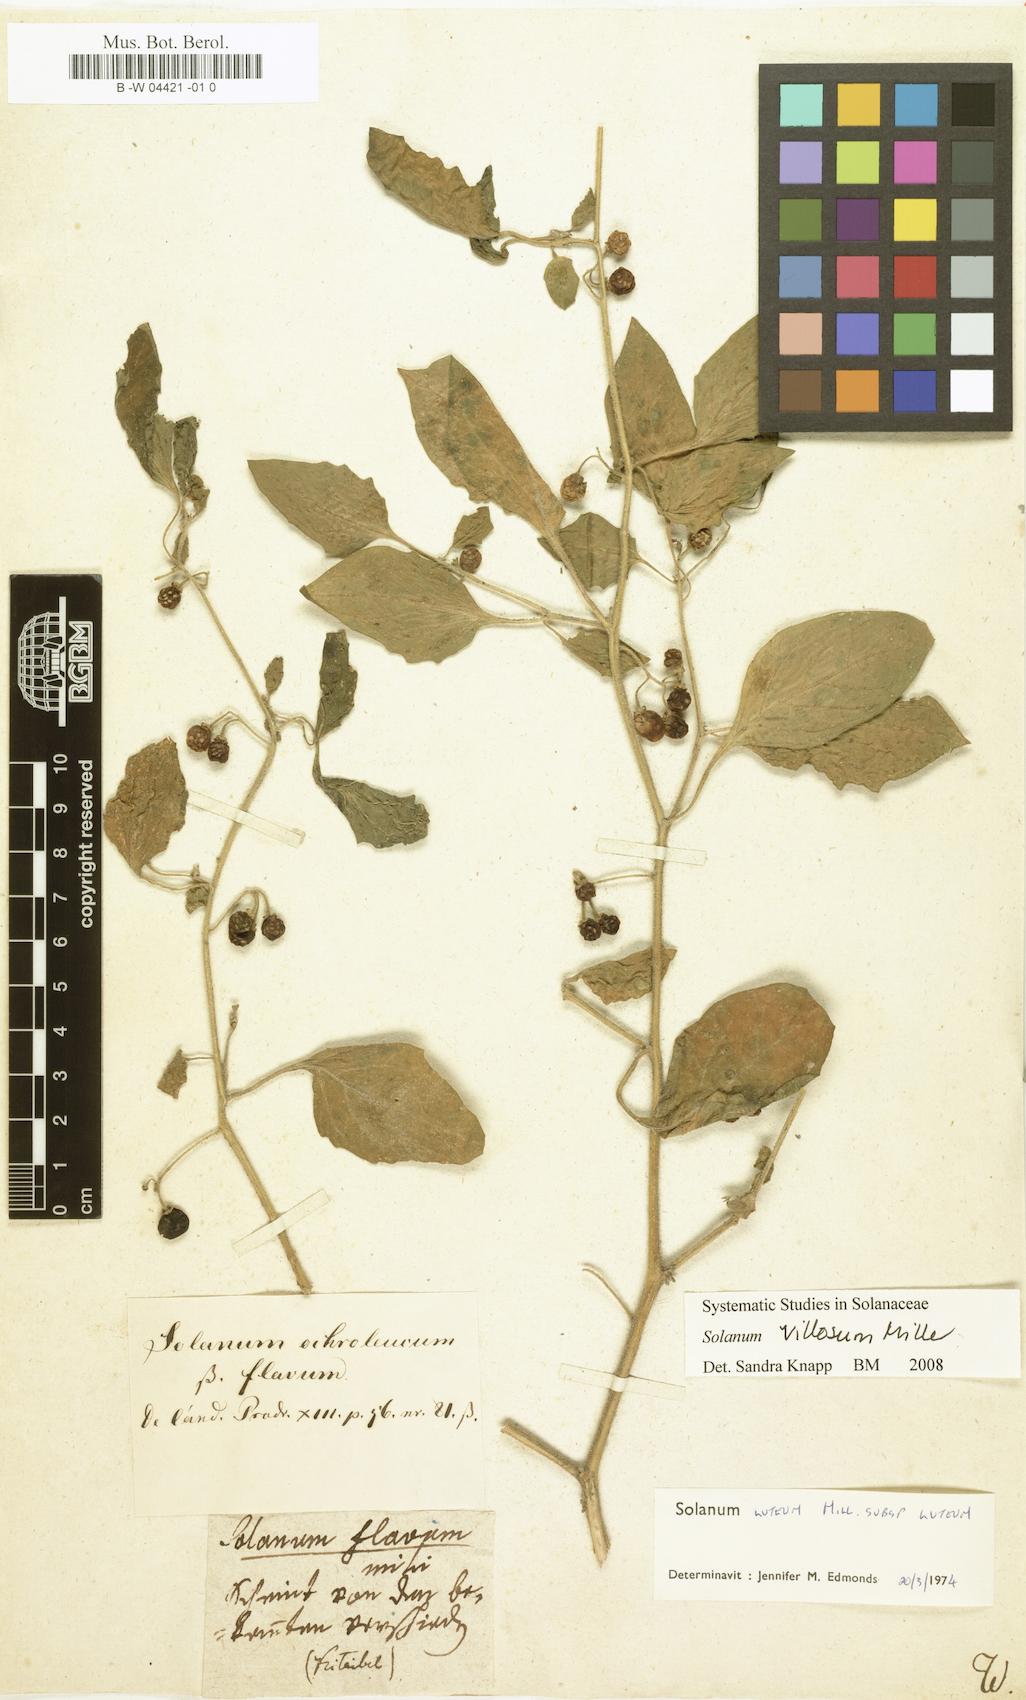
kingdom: Plantae
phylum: Tracheophyta
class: Magnoliopsida
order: Solanales
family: Solanaceae
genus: Solanum
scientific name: Solanum
